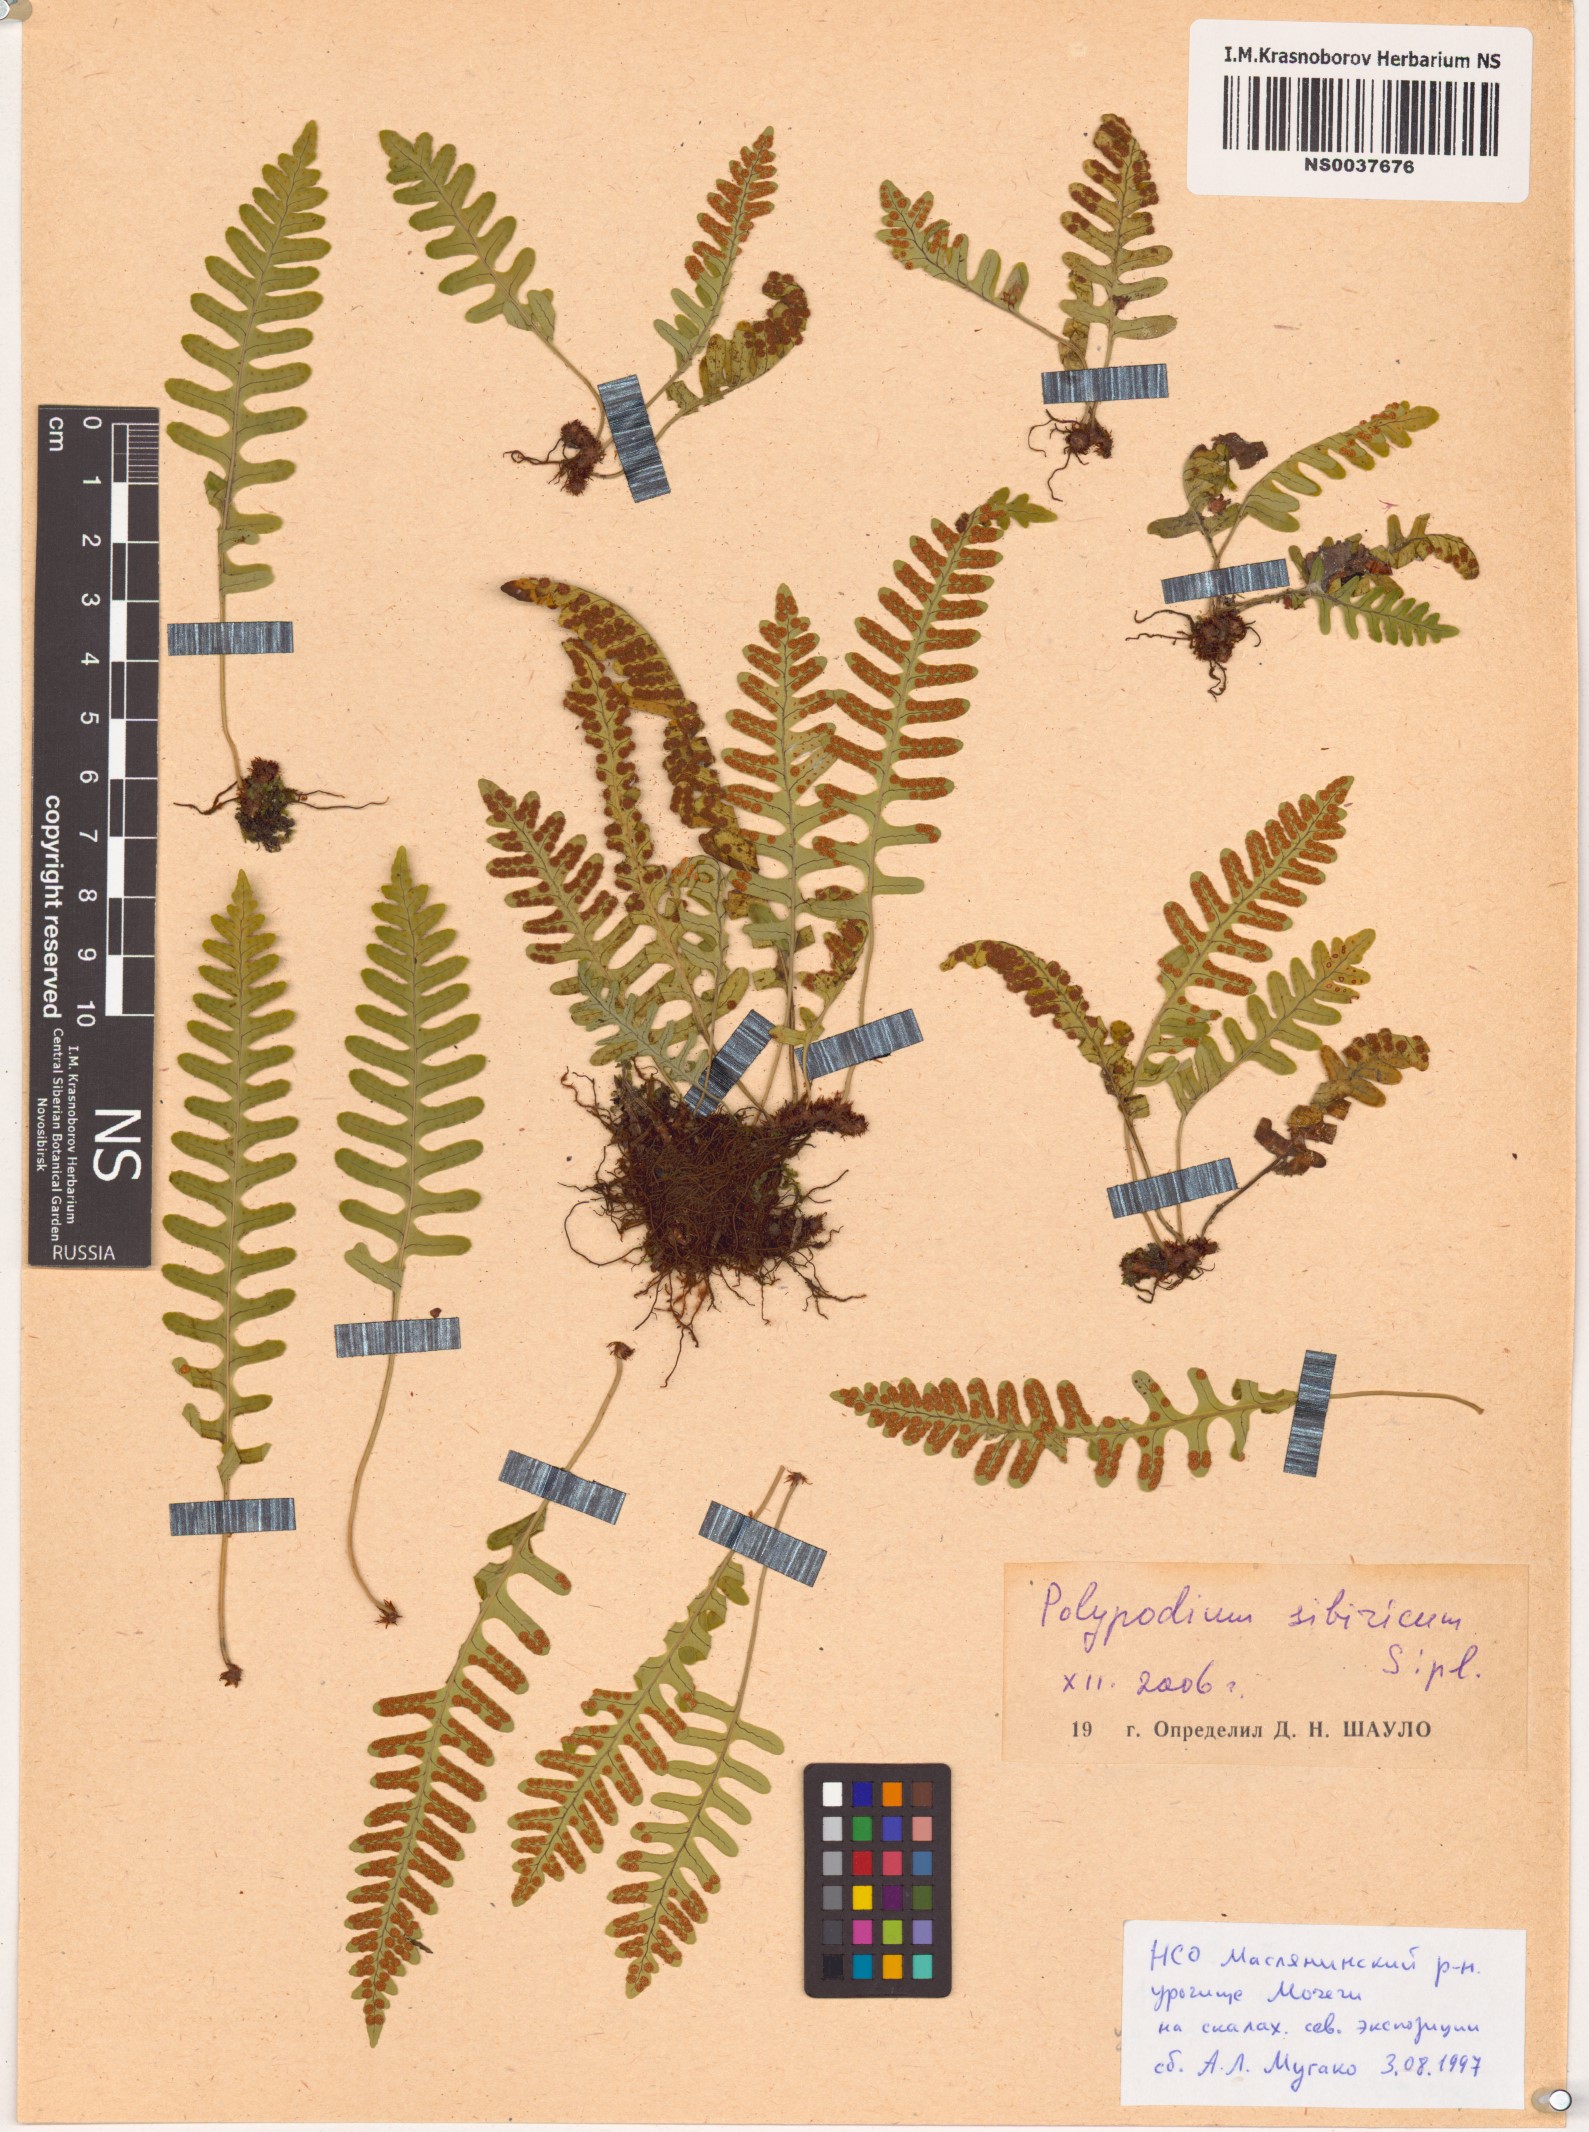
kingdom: Plantae
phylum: Tracheophyta
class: Polypodiopsida
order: Polypodiales
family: Polypodiaceae
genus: Polypodium
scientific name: Polypodium sibiricum
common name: Siberian polypody
